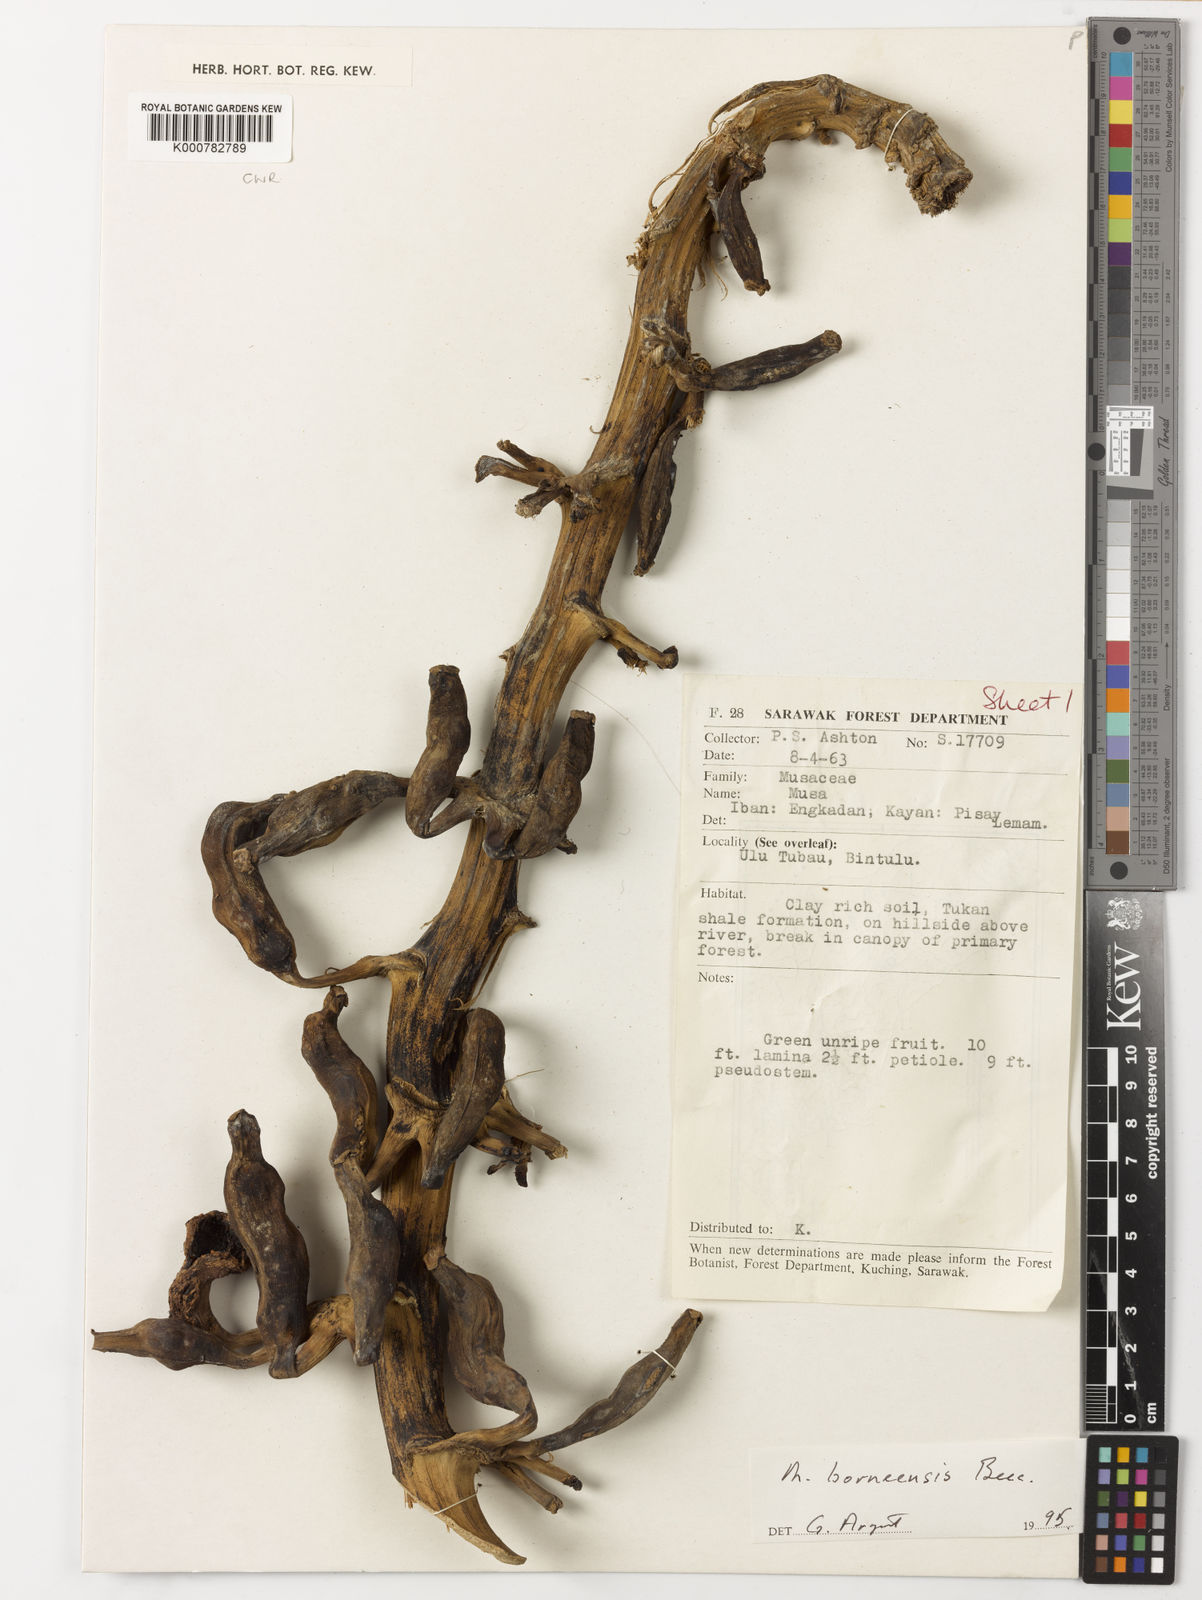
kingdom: Plantae
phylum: Tracheophyta
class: Liliopsida
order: Zingiberales
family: Musaceae
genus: Musa
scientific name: Musa borneensis
